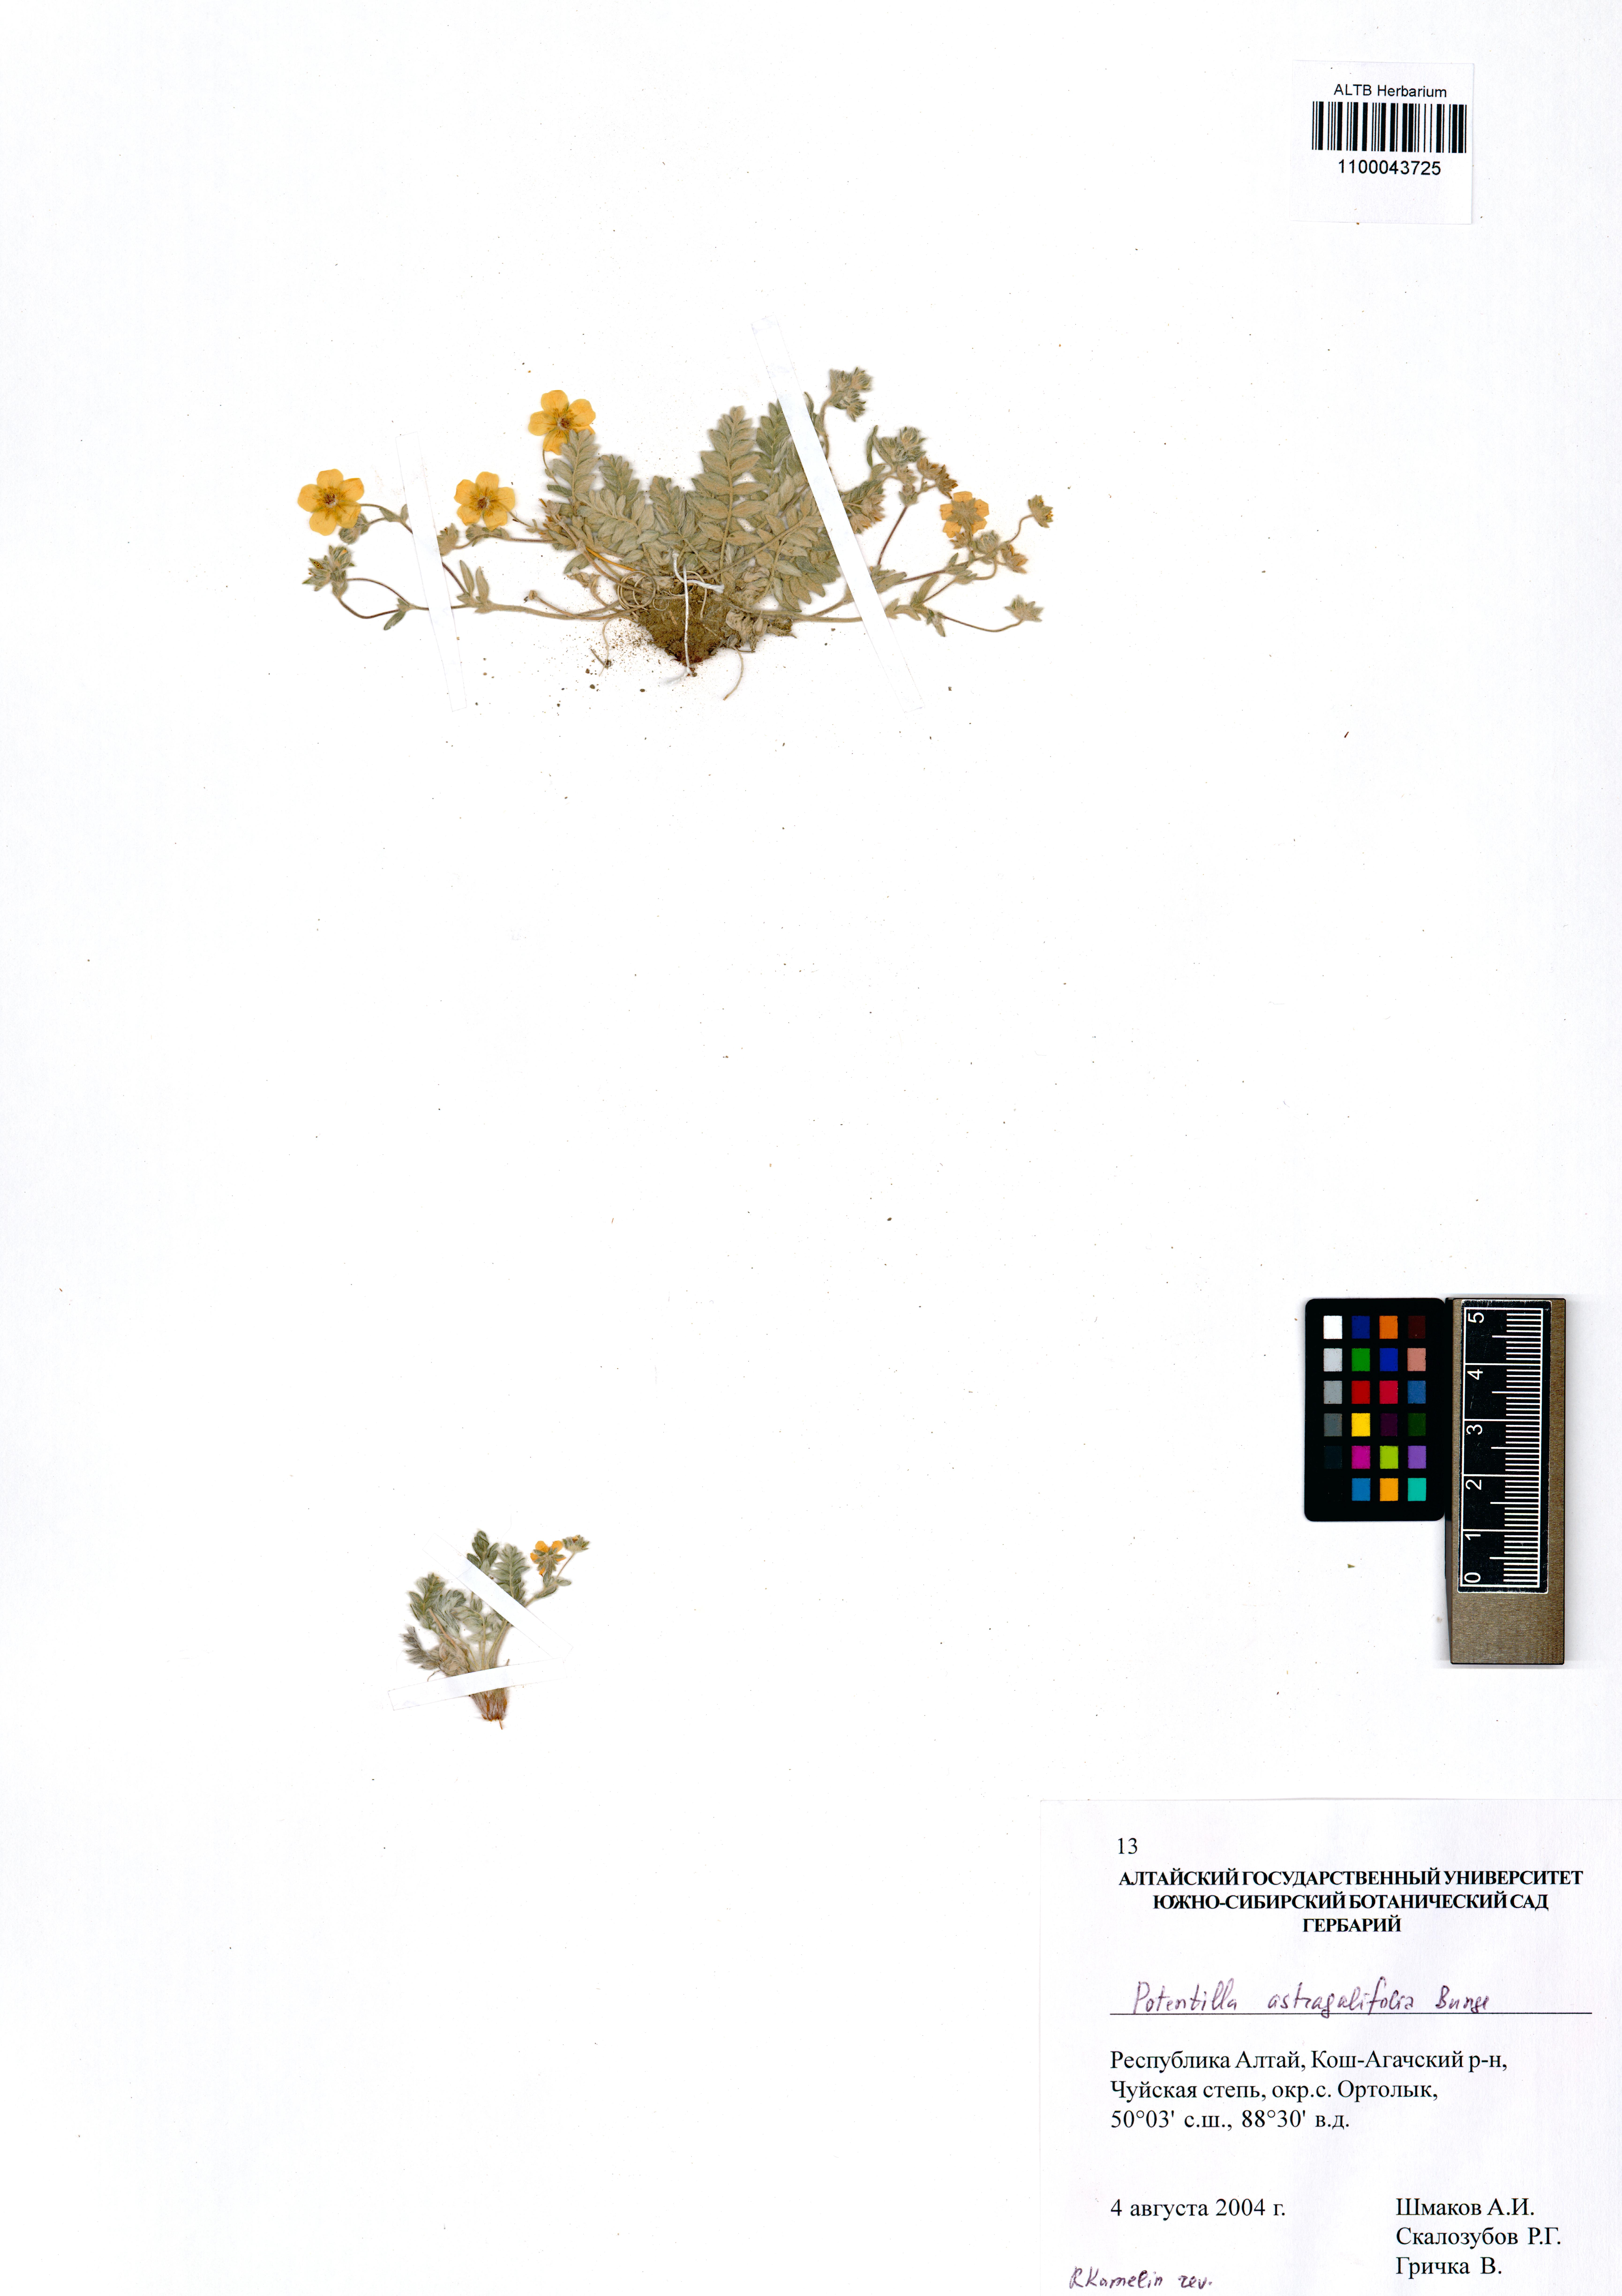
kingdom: Plantae
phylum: Tracheophyta
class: Magnoliopsida
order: Rosales
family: Rosaceae
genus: Potentilla
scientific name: Potentilla astragalifolia
